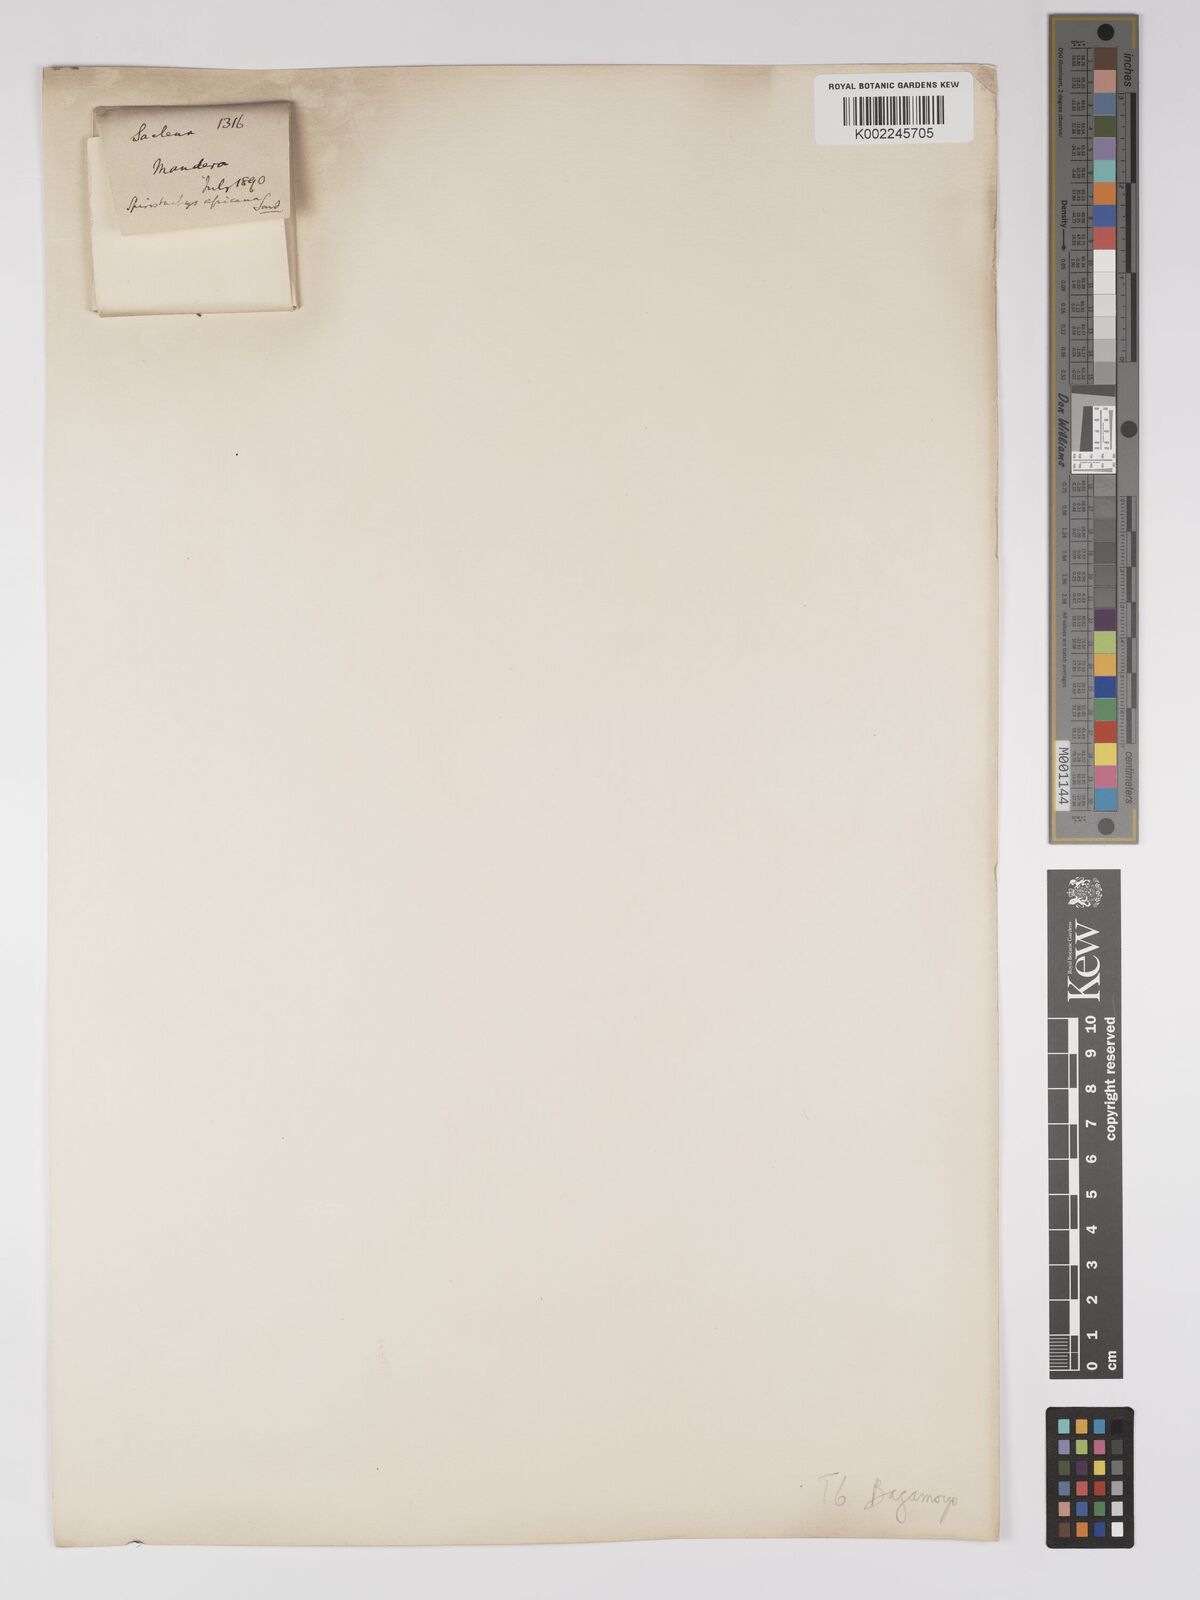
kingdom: Plantae
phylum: Tracheophyta
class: Magnoliopsida
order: Malpighiales
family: Euphorbiaceae
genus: Spirostachys
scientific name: Spirostachys africana
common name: Tamboti
